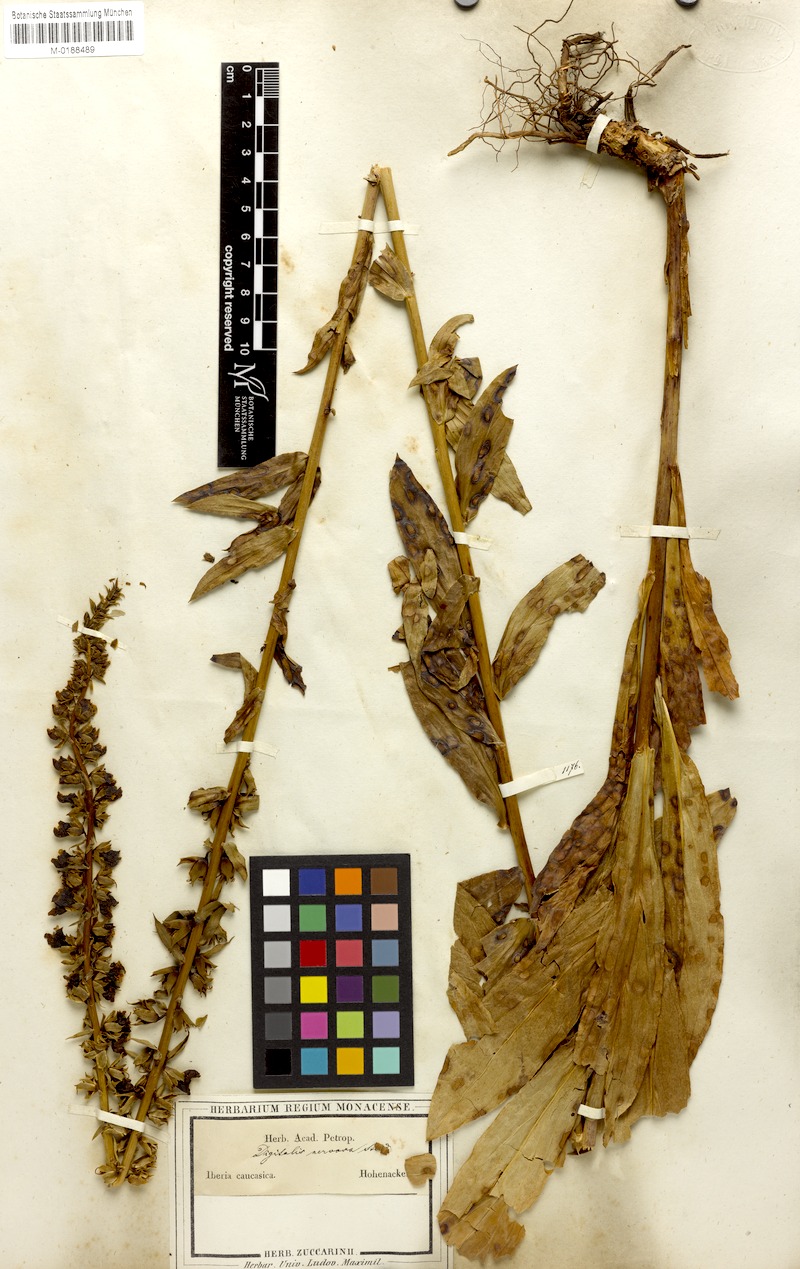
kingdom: Plantae
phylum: Tracheophyta
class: Magnoliopsida
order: Lamiales
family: Plantaginaceae
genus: Digitalis
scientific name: Digitalis nervosa
